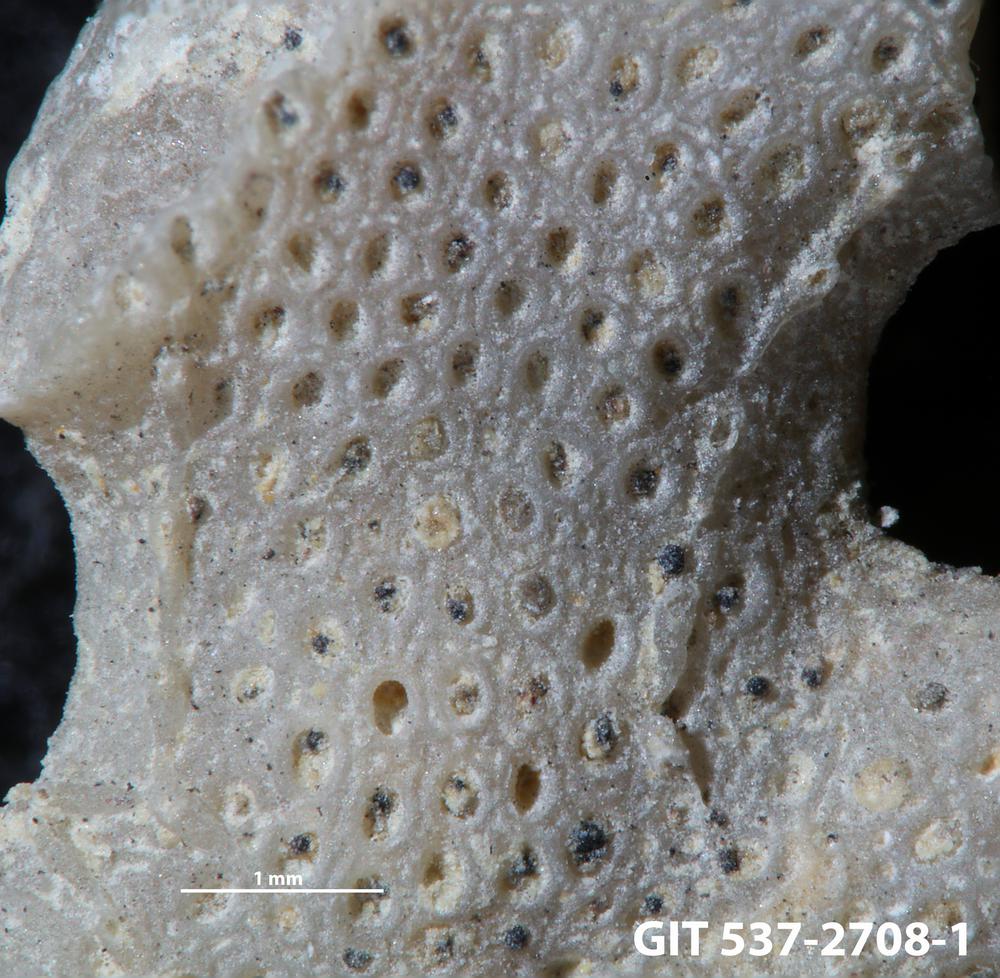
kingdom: Animalia
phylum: Bryozoa
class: Stenolaemata
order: Cyclostomatida
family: Corynotrypidae
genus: Corynotrypa
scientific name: Corynotrypa
